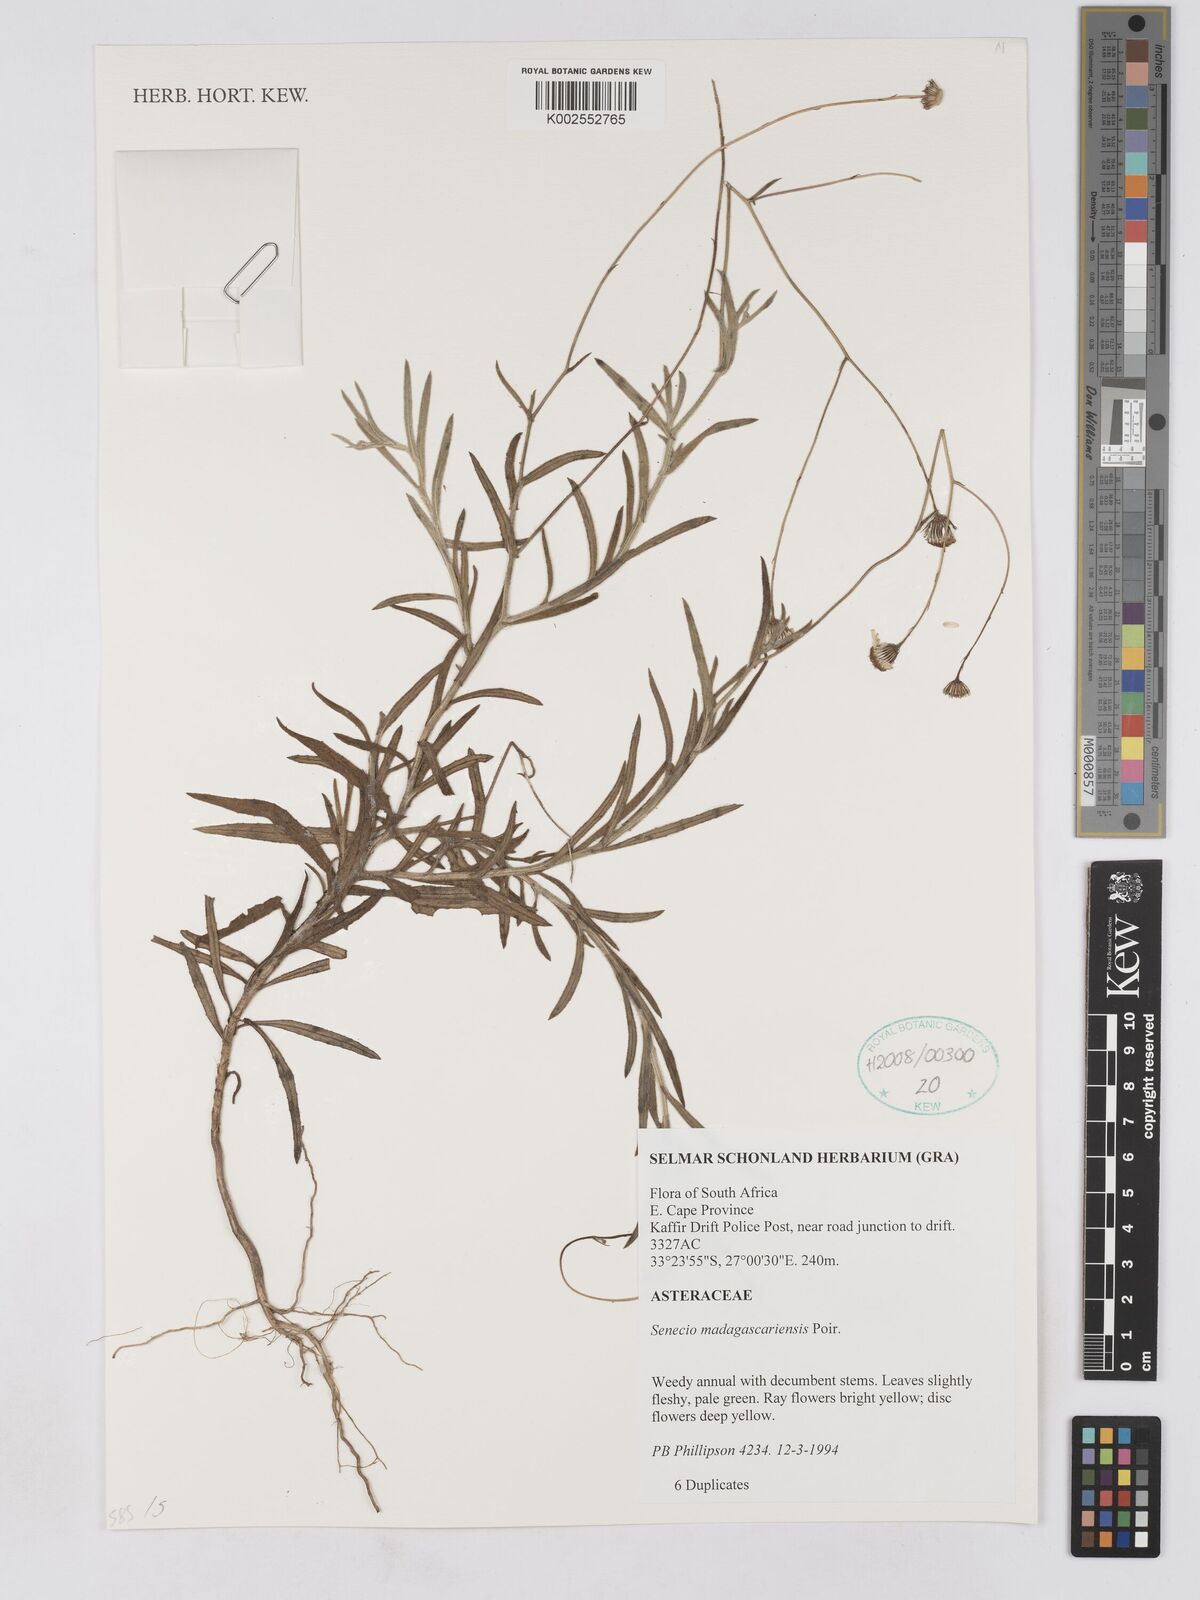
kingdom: Plantae
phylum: Tracheophyta
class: Magnoliopsida
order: Asterales
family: Asteraceae
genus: Senecio
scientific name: Senecio madagascariensis
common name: Madagascar ragwort
